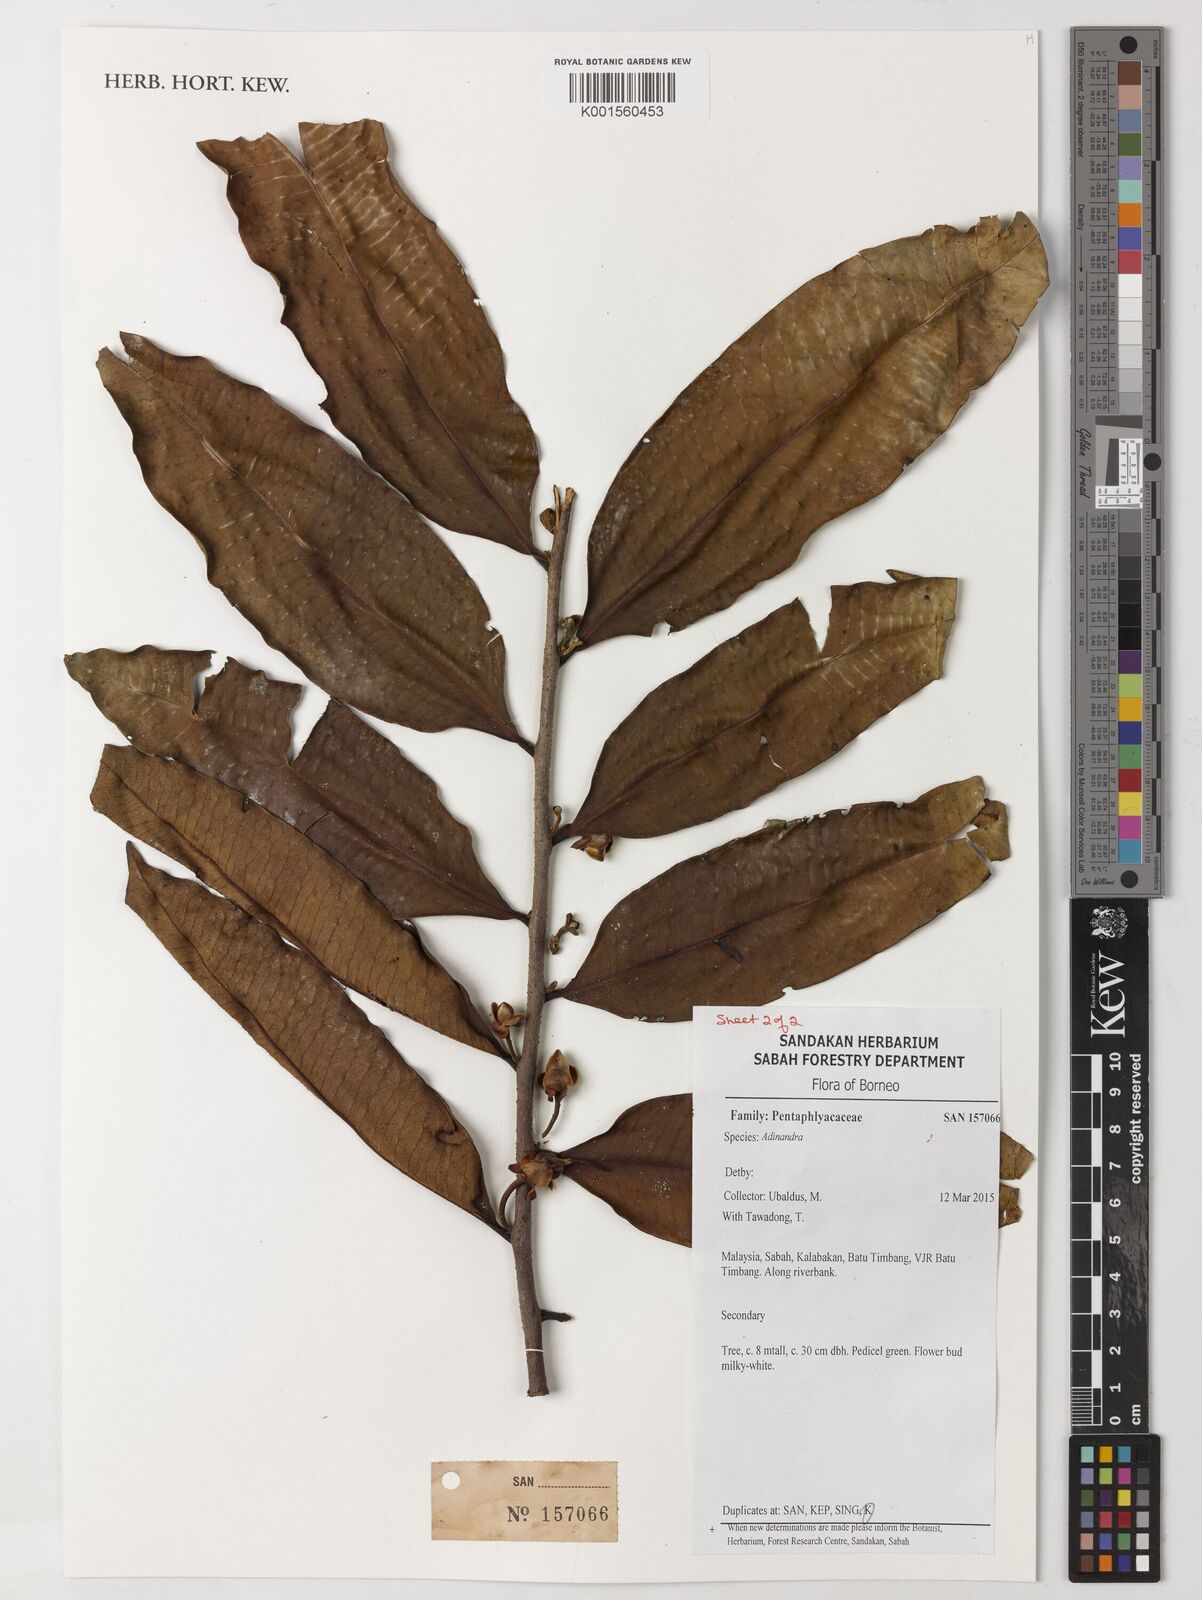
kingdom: Plantae
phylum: Tracheophyta
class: Magnoliopsida
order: Ericales
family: Pentaphylacaceae
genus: Adinandra
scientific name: Adinandra
